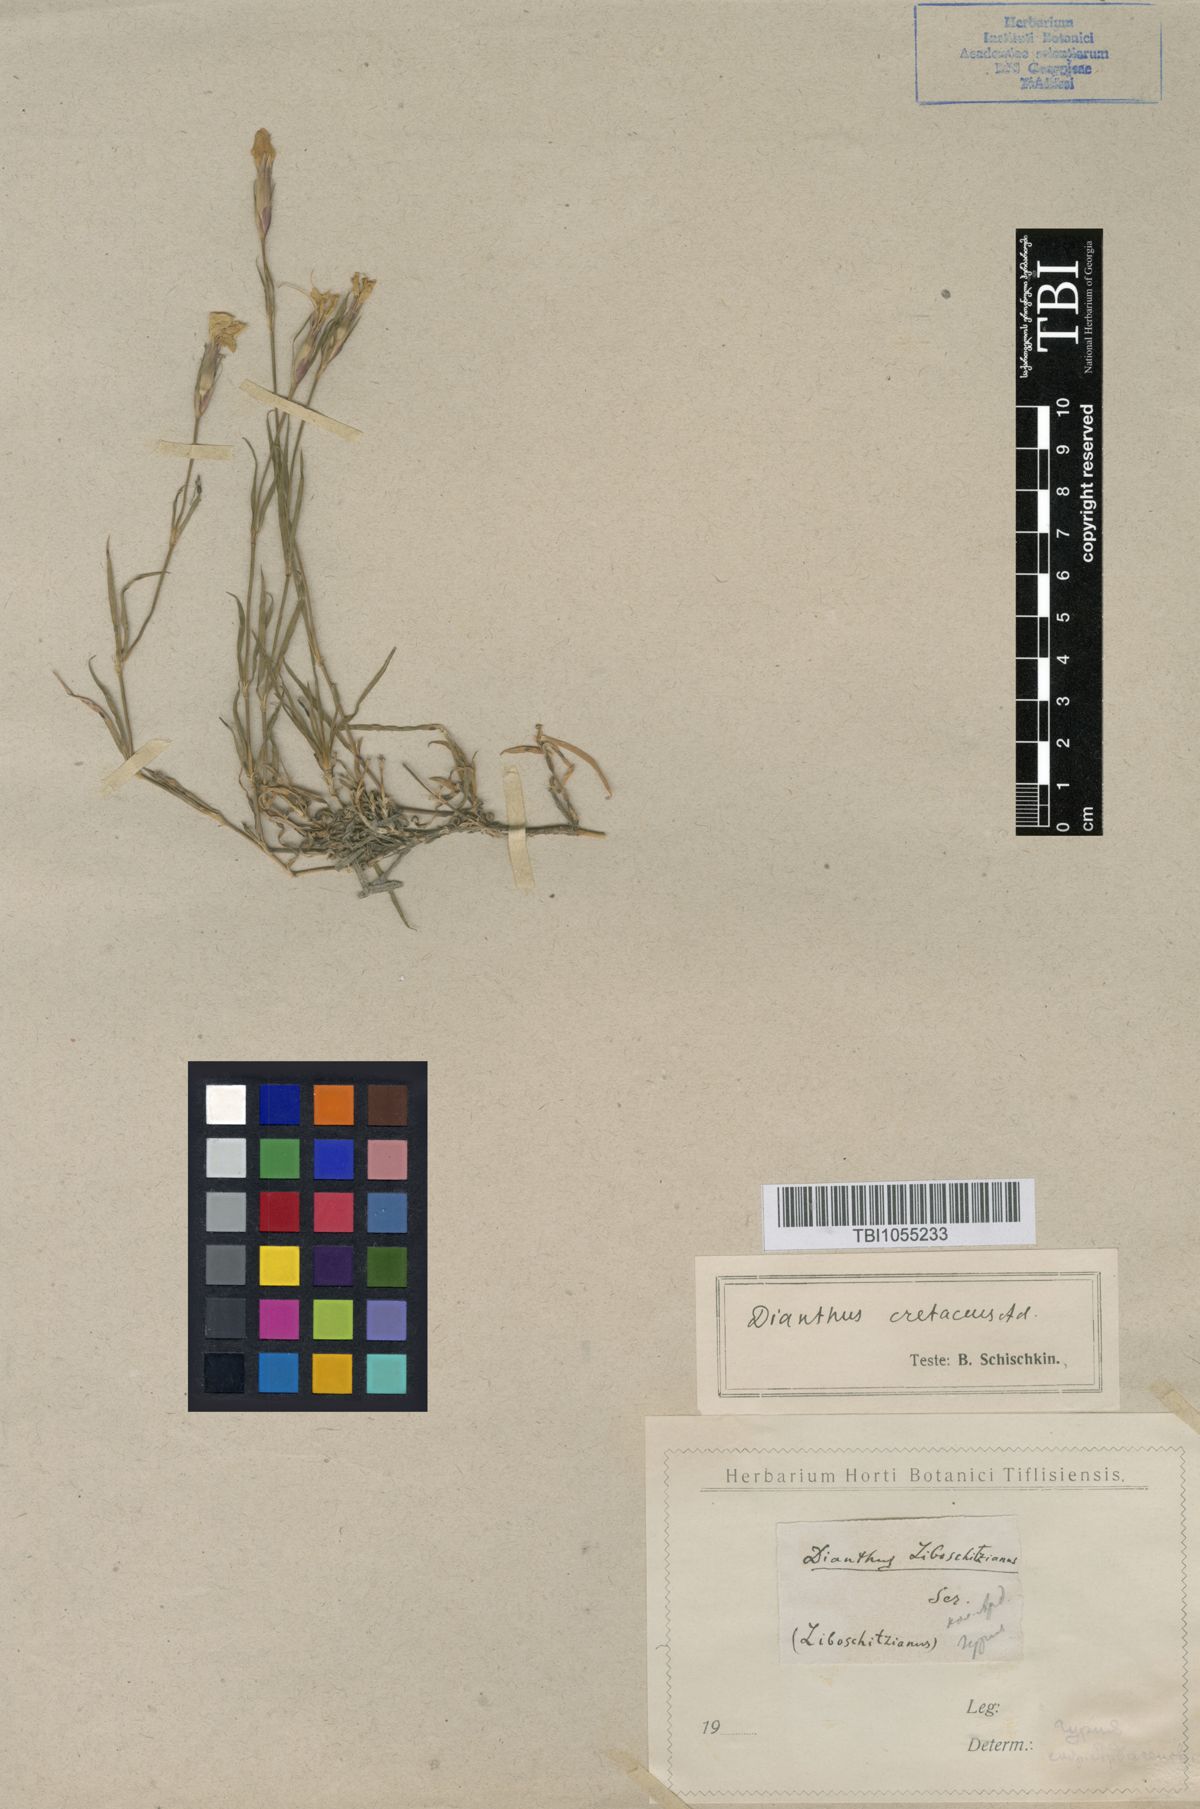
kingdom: Plantae
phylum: Tracheophyta
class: Magnoliopsida
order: Caryophyllales
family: Caryophyllaceae
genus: Dianthus
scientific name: Dianthus cretaceus
